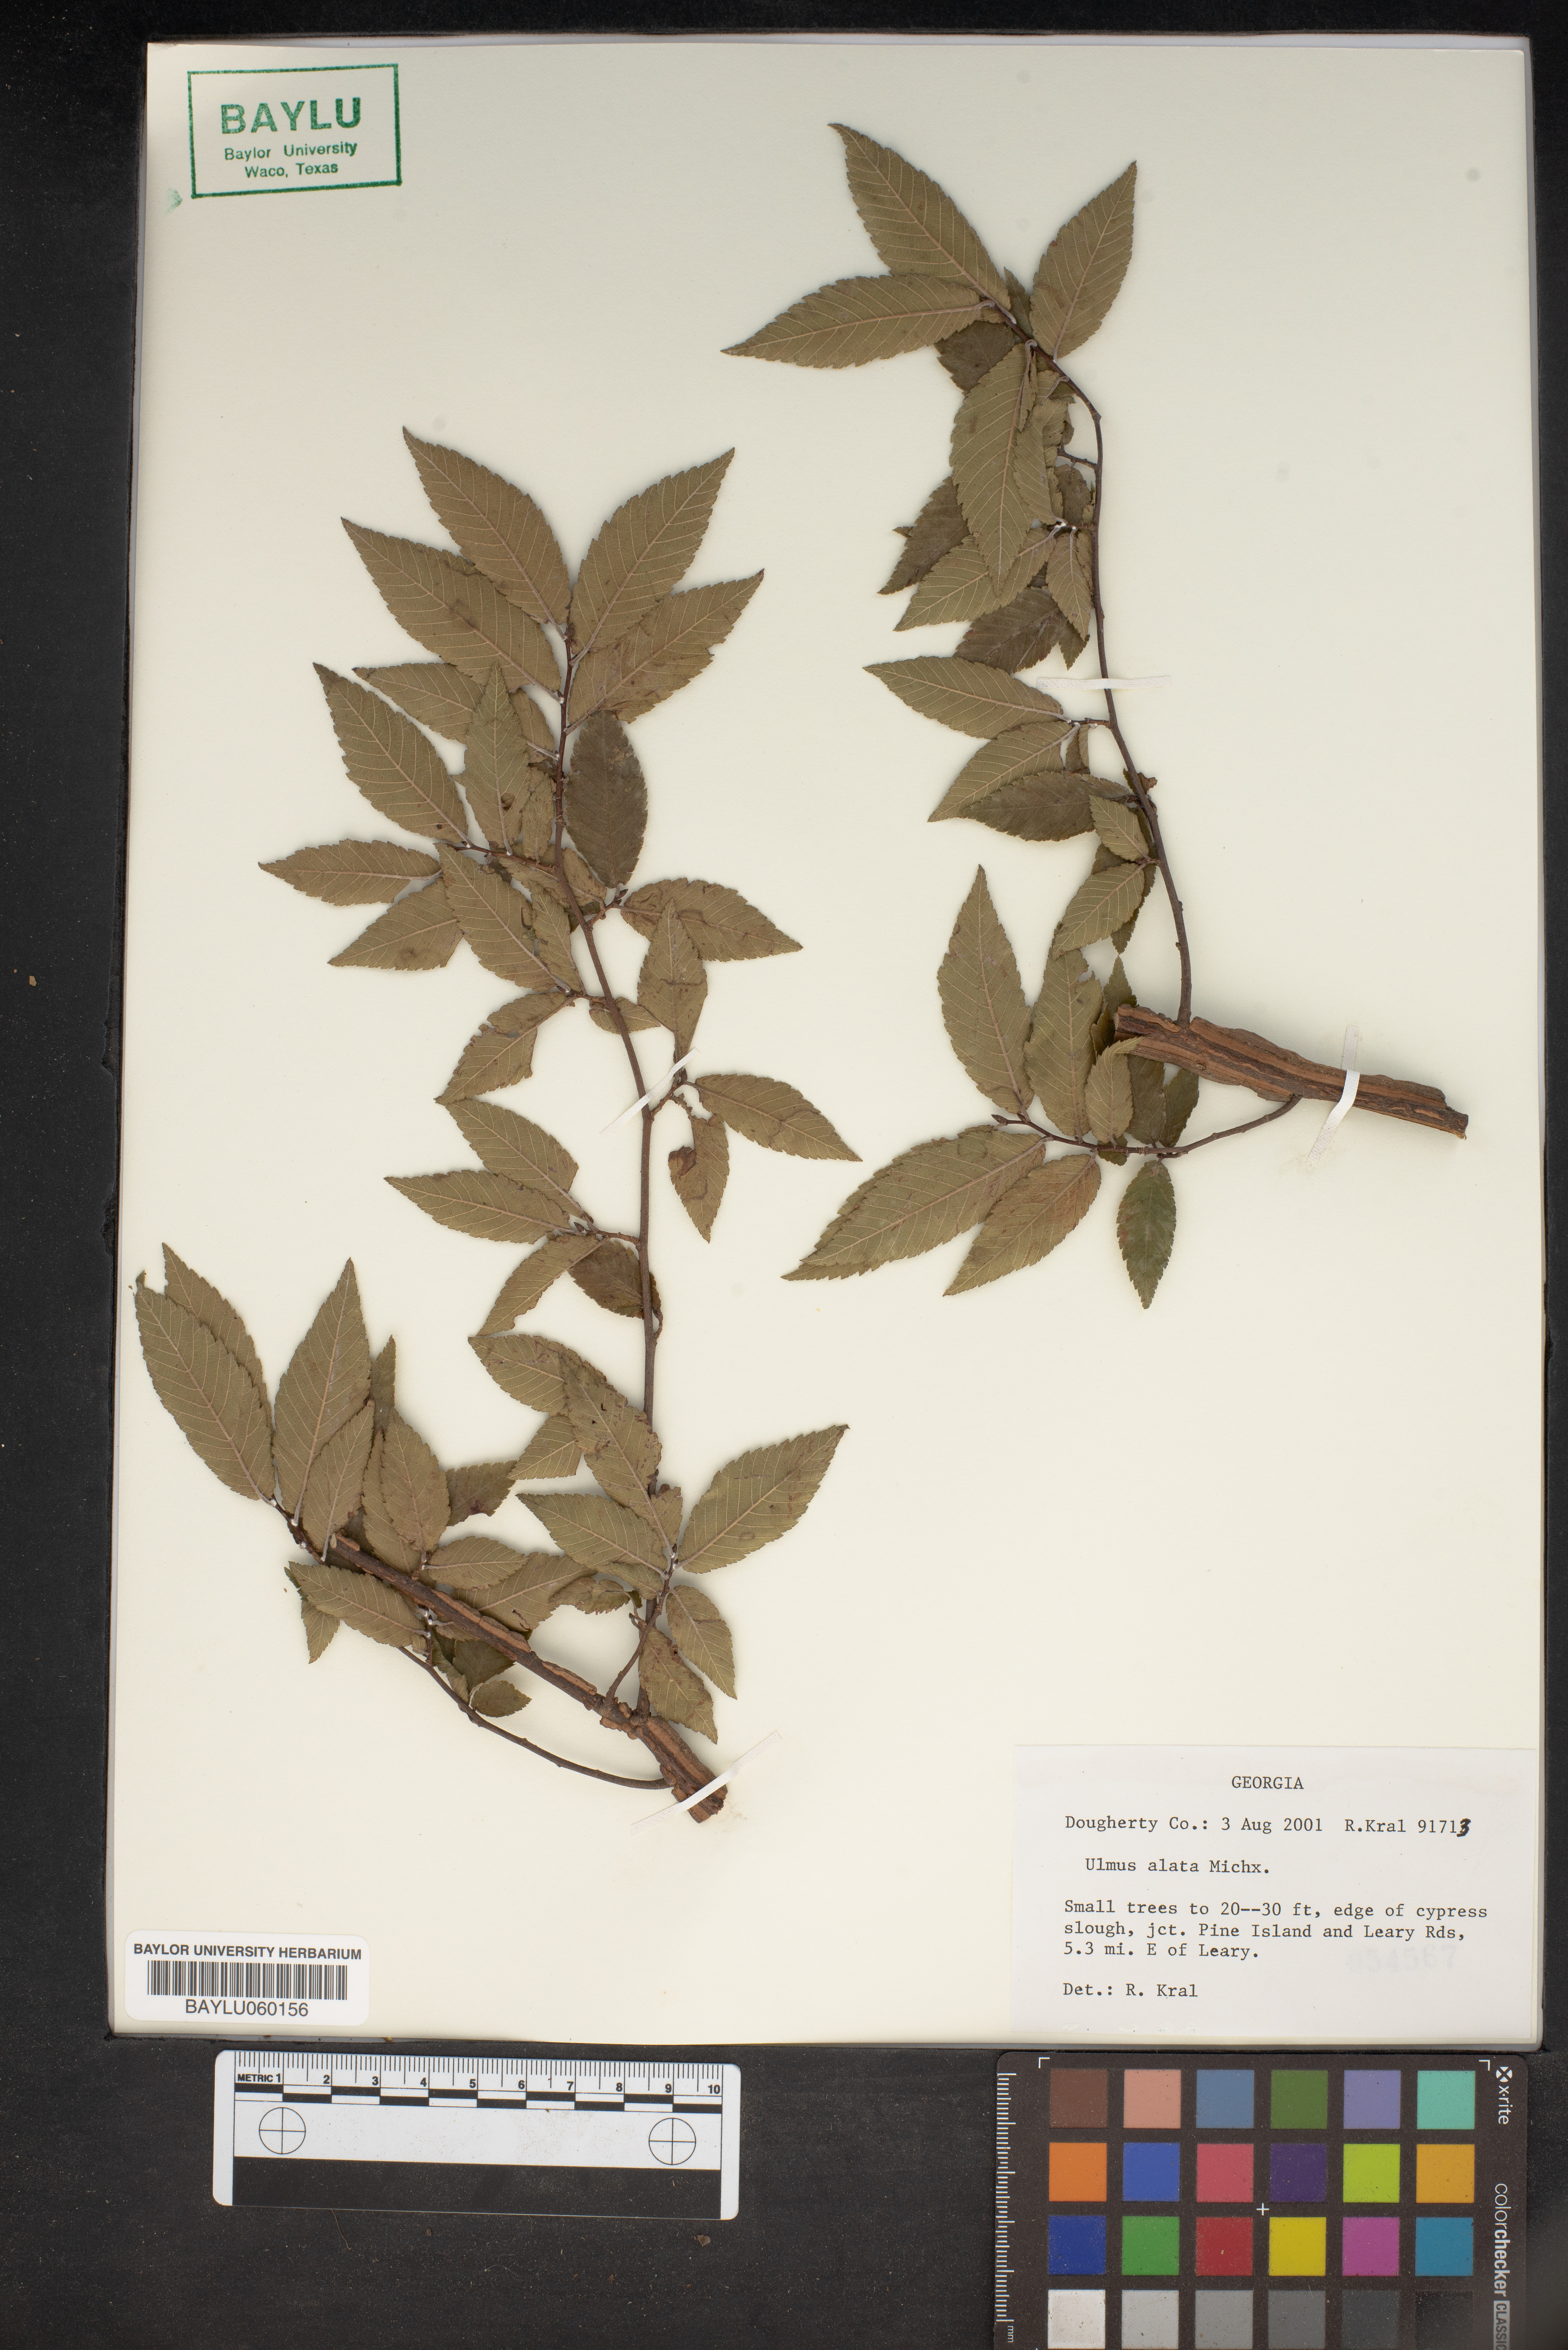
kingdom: Plantae
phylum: Tracheophyta
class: Magnoliopsida
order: Rosales
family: Ulmaceae
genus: Ulmus
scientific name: Ulmus alata
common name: Winged elm
